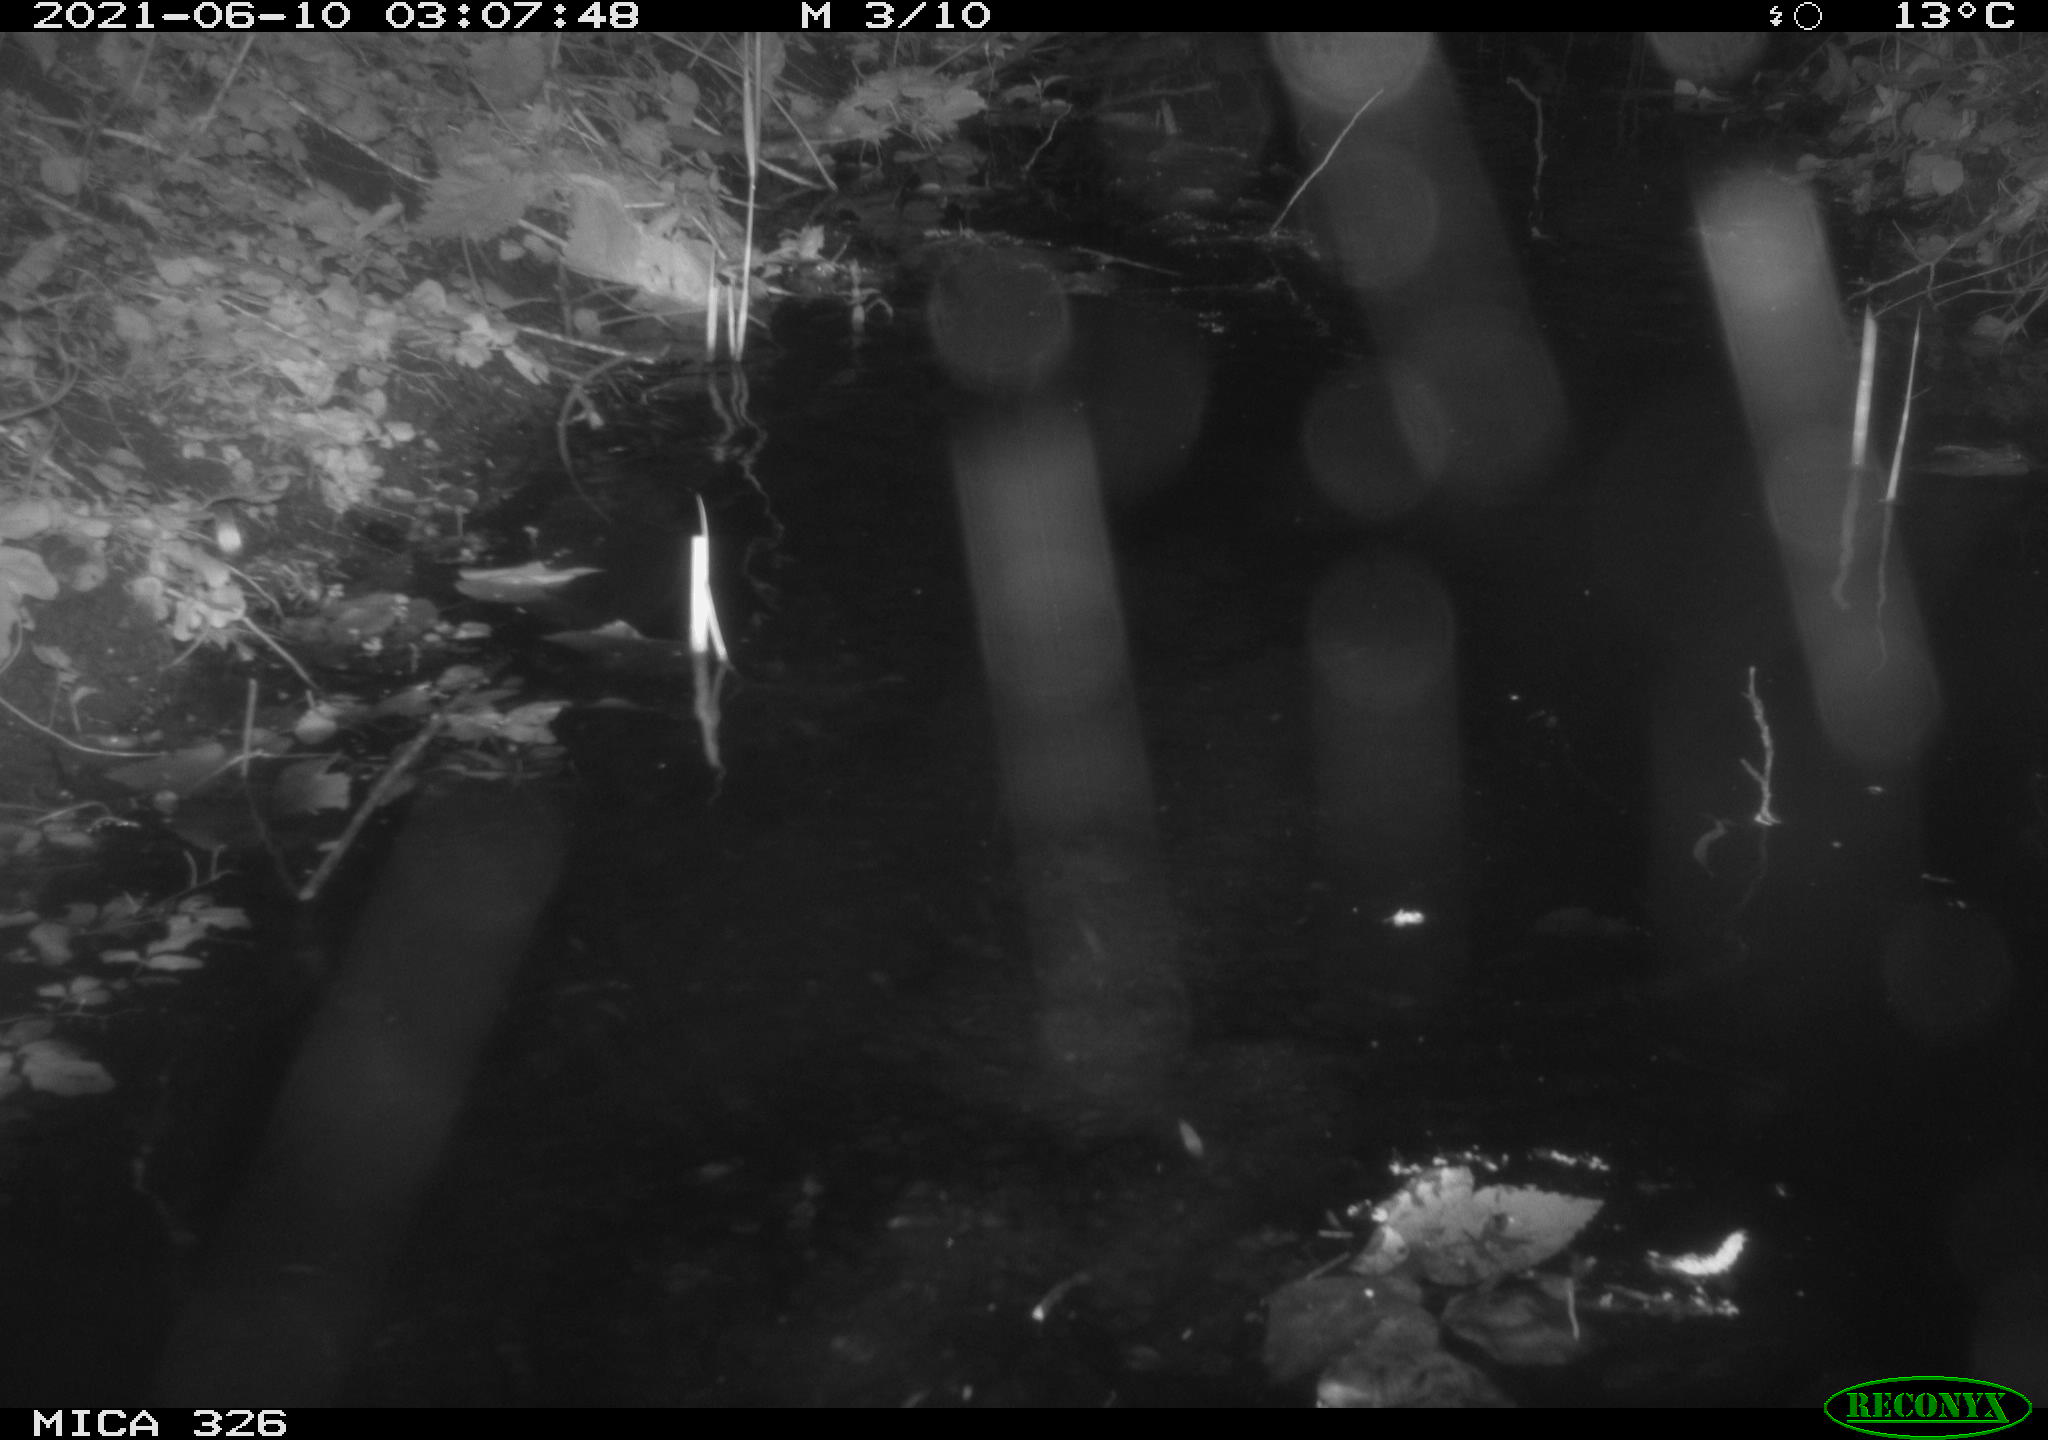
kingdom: Animalia
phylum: Chordata
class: Mammalia
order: Rodentia
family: Cricetidae
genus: Ondatra
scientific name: Ondatra zibethicus
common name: Muskrat
